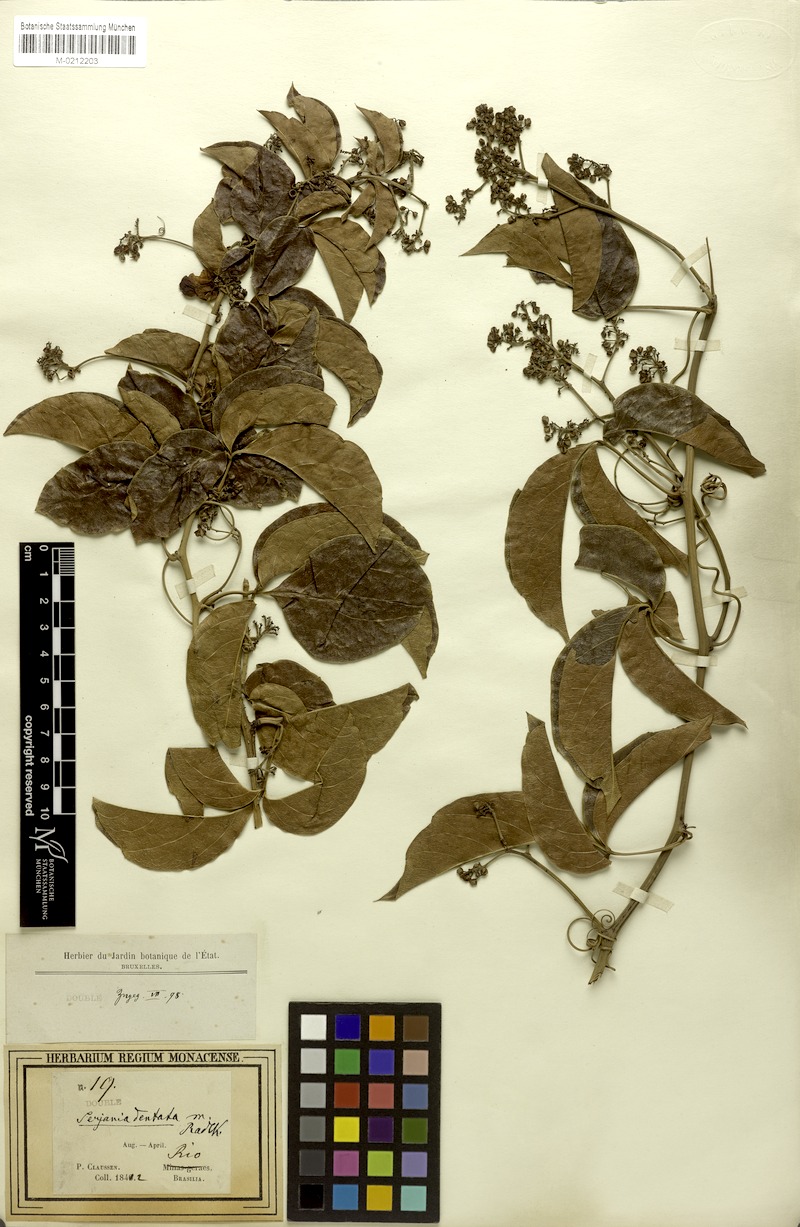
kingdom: Plantae
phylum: Tracheophyta
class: Magnoliopsida
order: Sapindales
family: Sapindaceae
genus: Serjania
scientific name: Serjania dentata
